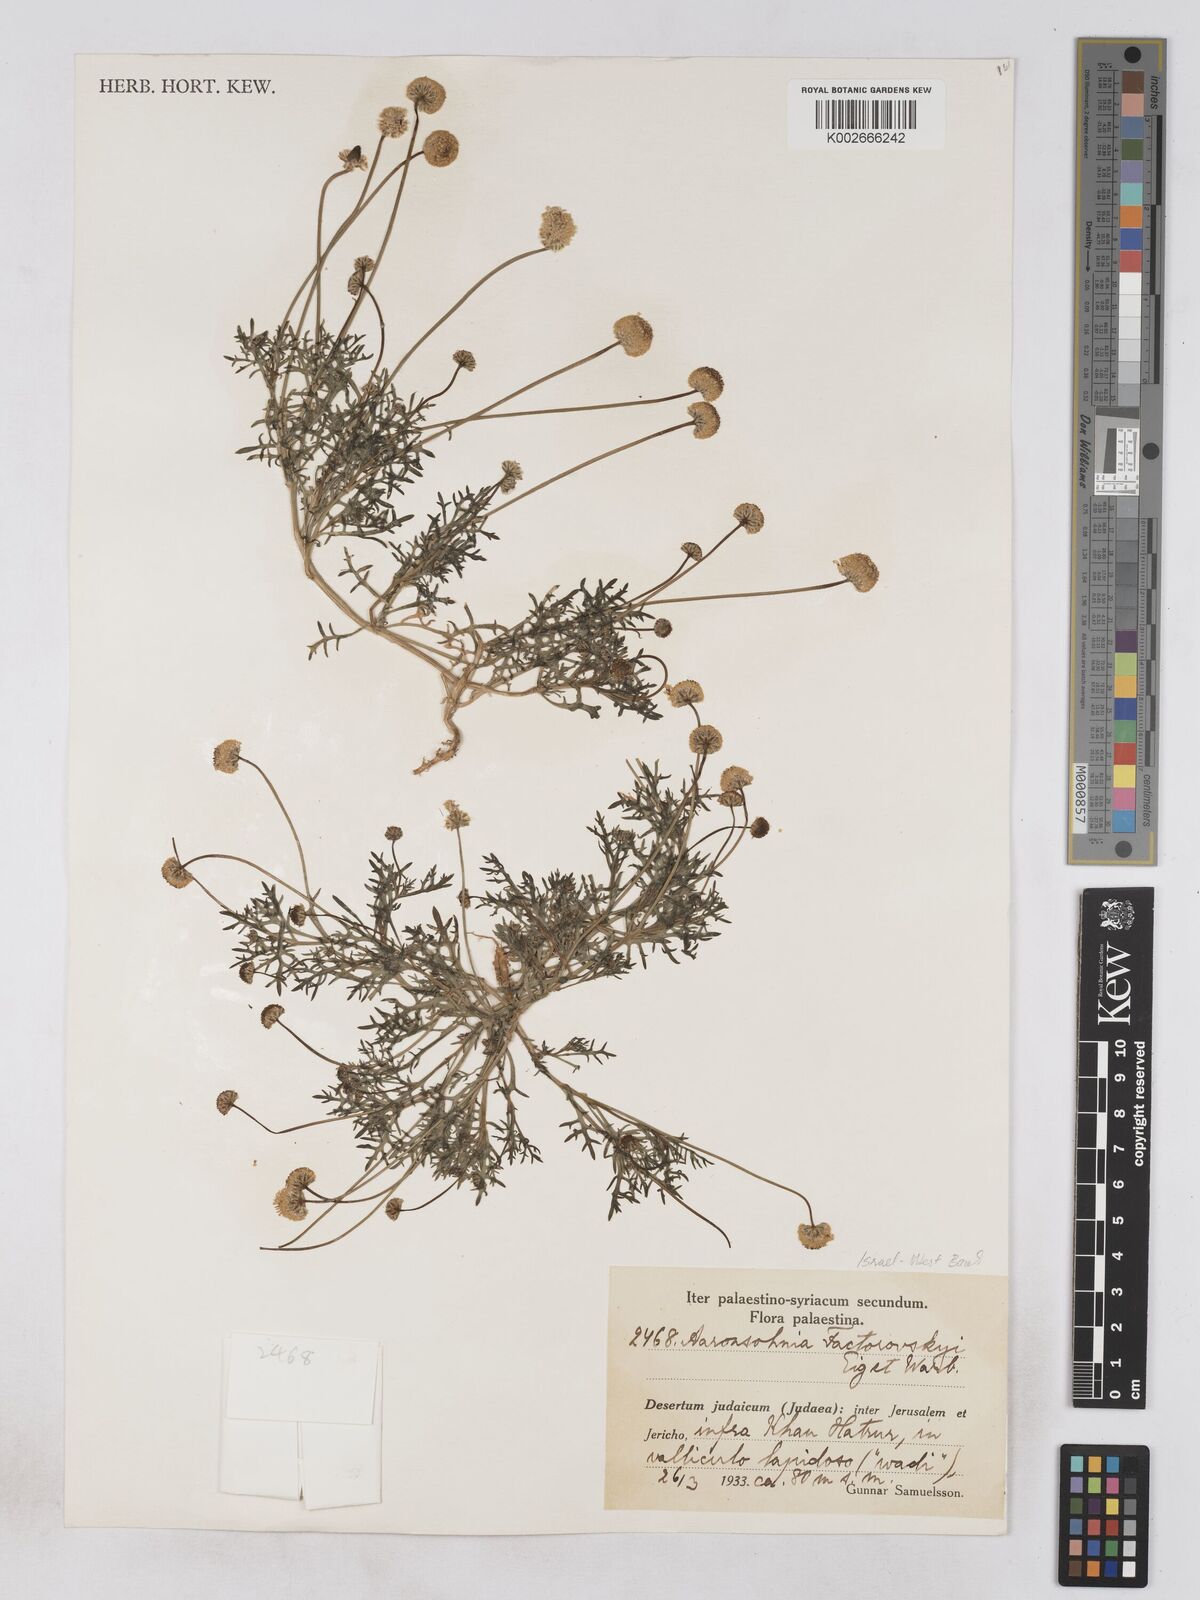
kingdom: Plantae
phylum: Tracheophyta
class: Magnoliopsida
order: Asterales
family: Asteraceae
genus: Otoglyphis
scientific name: Otoglyphis factorovskyi
